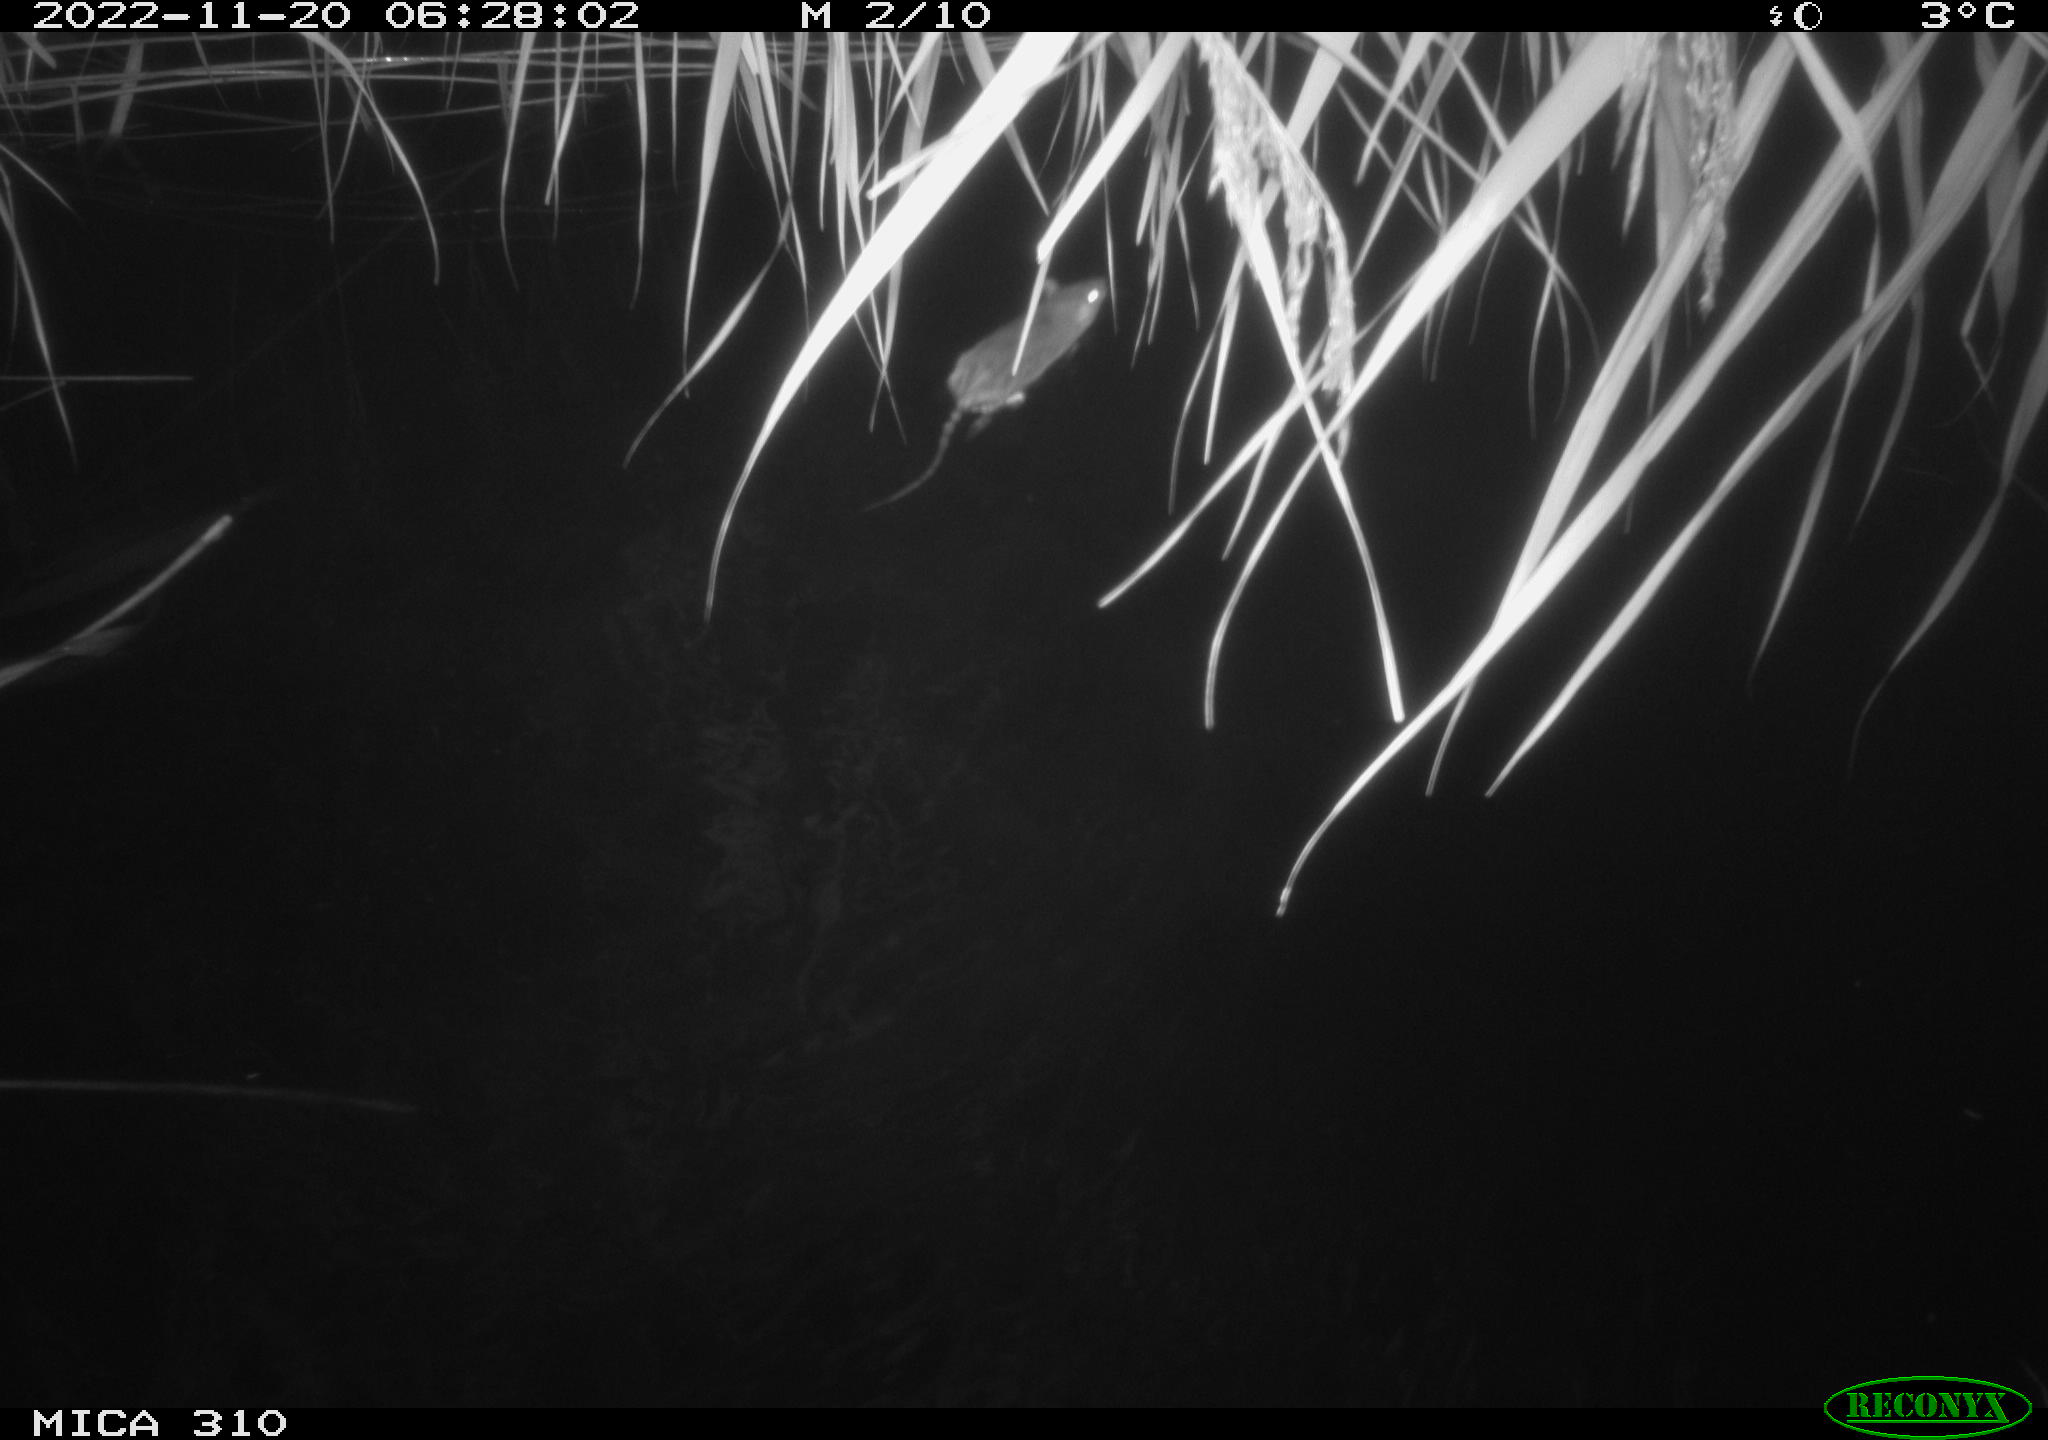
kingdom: Animalia
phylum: Chordata
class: Mammalia
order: Rodentia
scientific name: Rodentia
